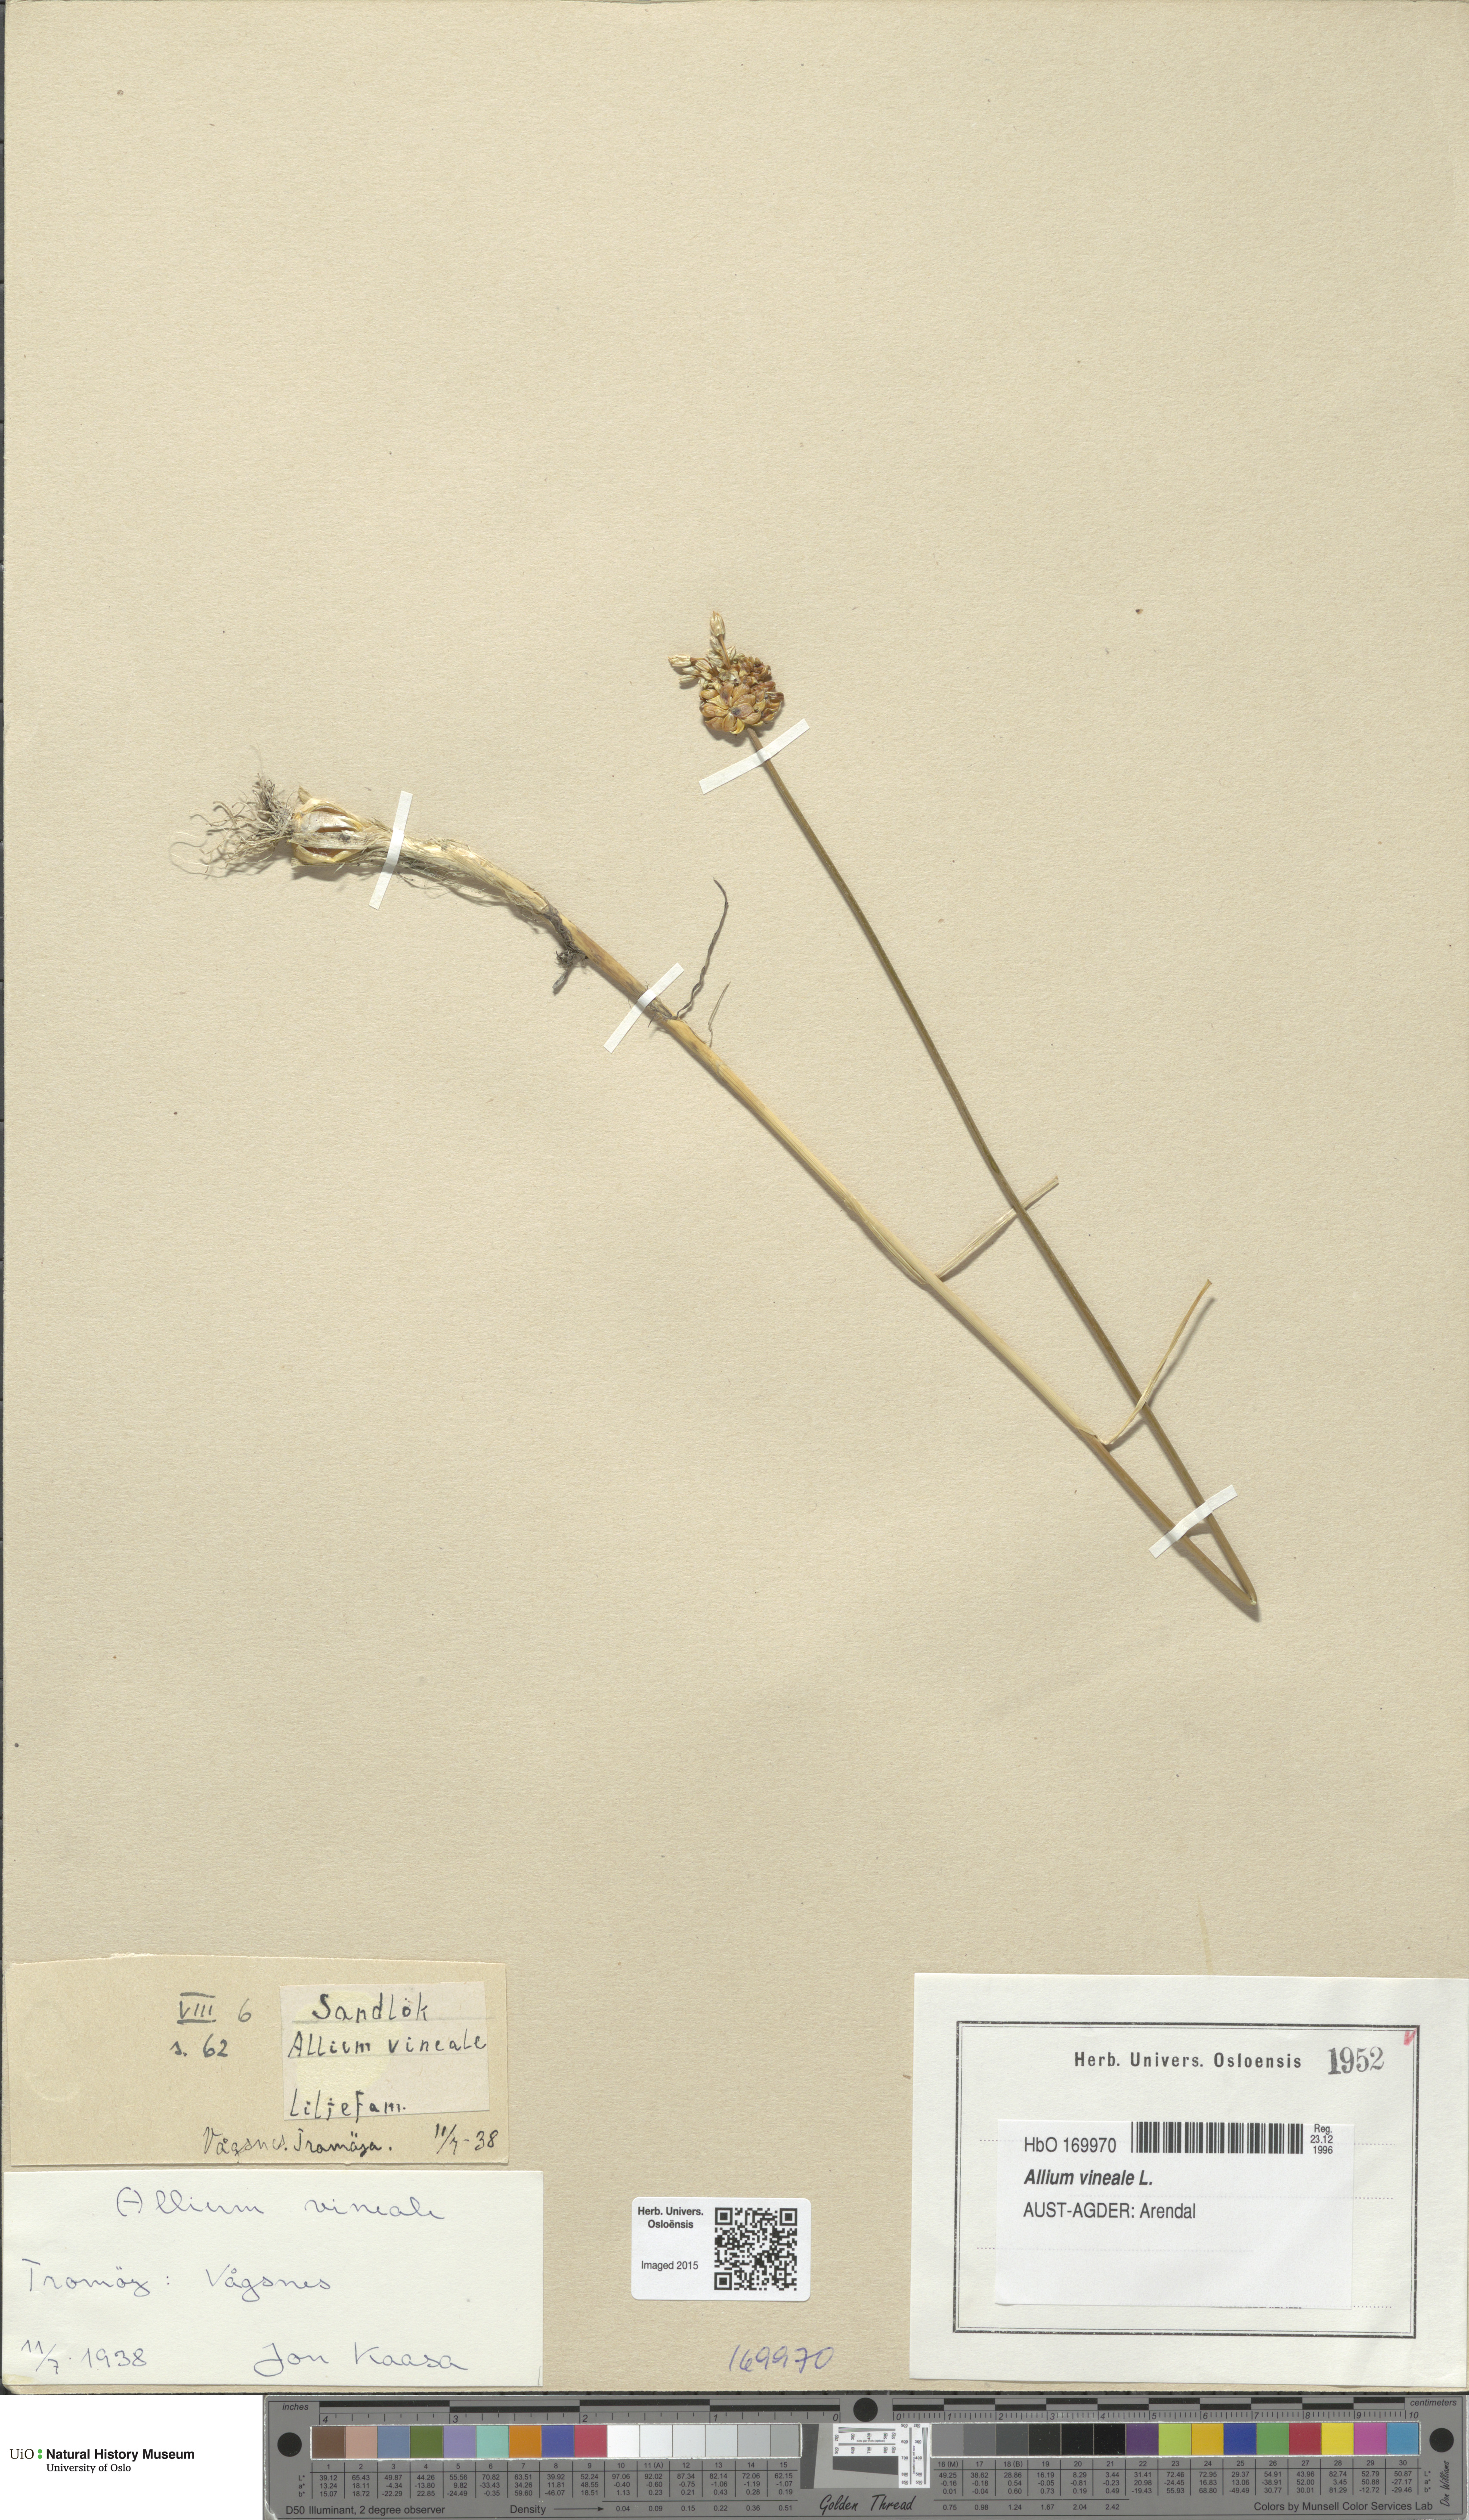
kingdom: Plantae
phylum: Tracheophyta
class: Liliopsida
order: Asparagales
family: Amaryllidaceae
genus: Allium
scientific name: Allium vineale
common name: Crow garlic
